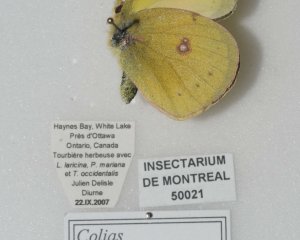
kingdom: Animalia
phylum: Arthropoda
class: Insecta
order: Lepidoptera
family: Pieridae
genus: Colias
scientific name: Colias eurytheme
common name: Orange Sulphur
